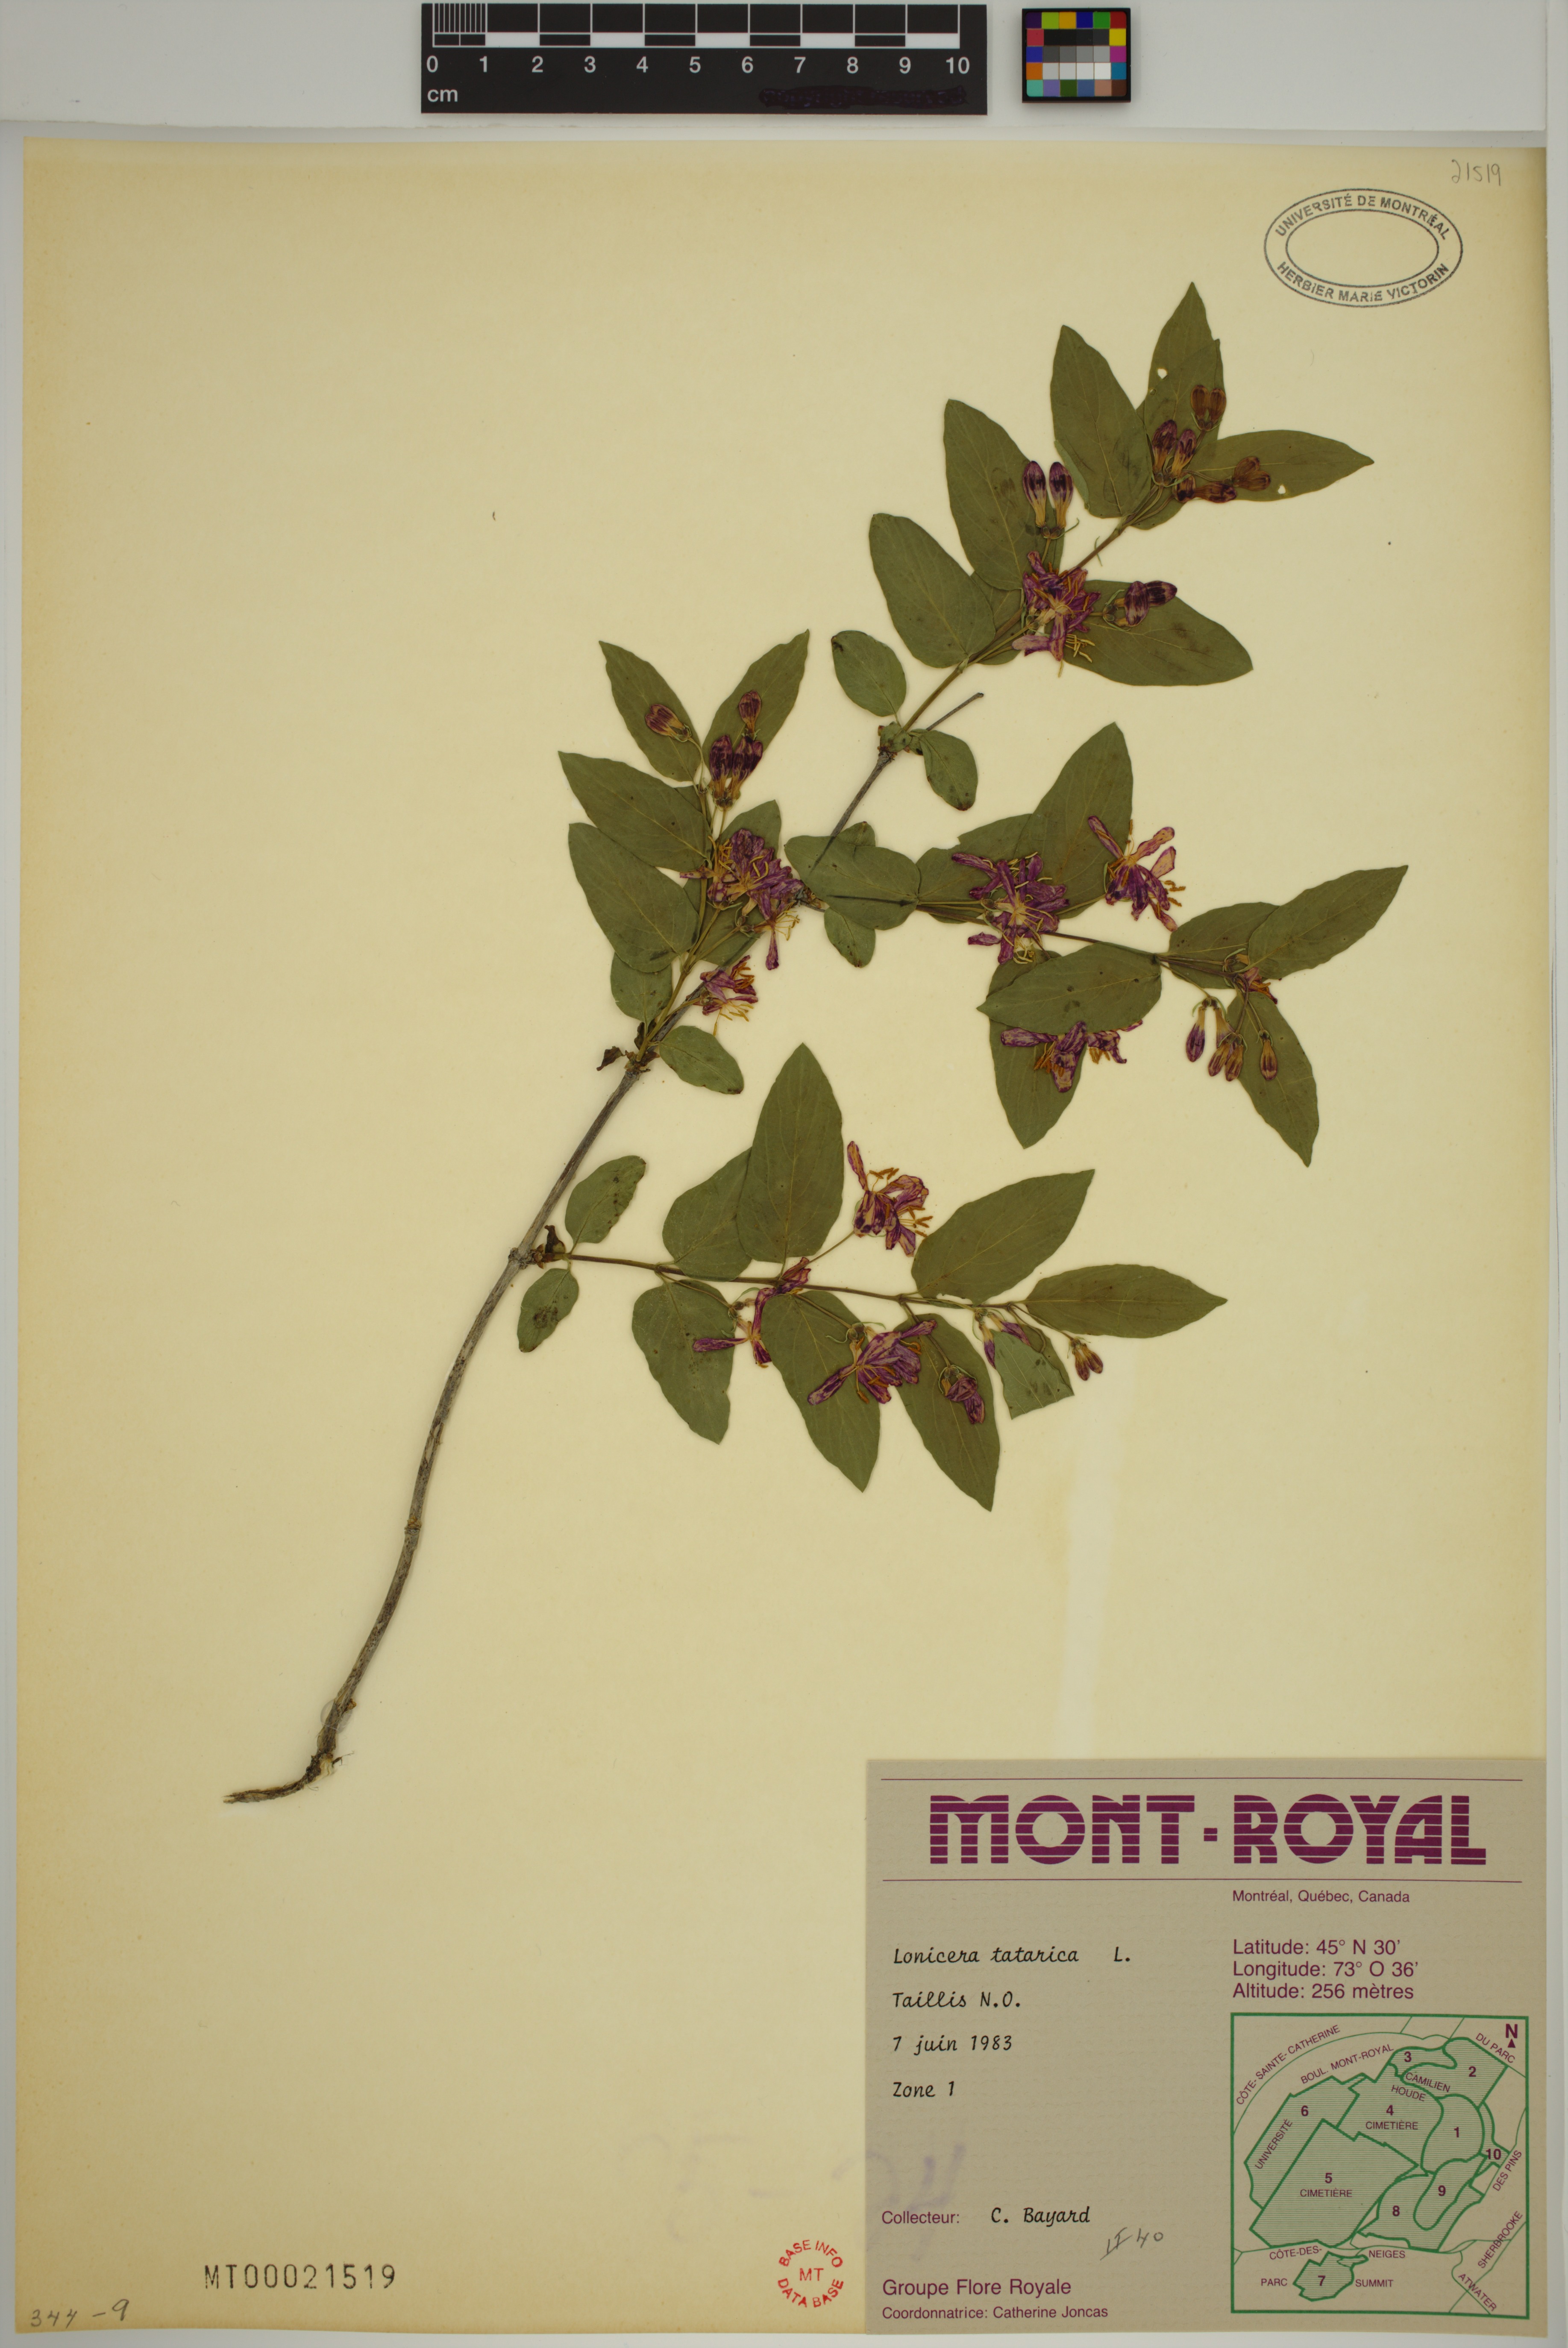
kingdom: Plantae
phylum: Tracheophyta
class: Magnoliopsida
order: Dipsacales
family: Caprifoliaceae
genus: Lonicera
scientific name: Lonicera tatarica
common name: Tatarian honeysuckle
